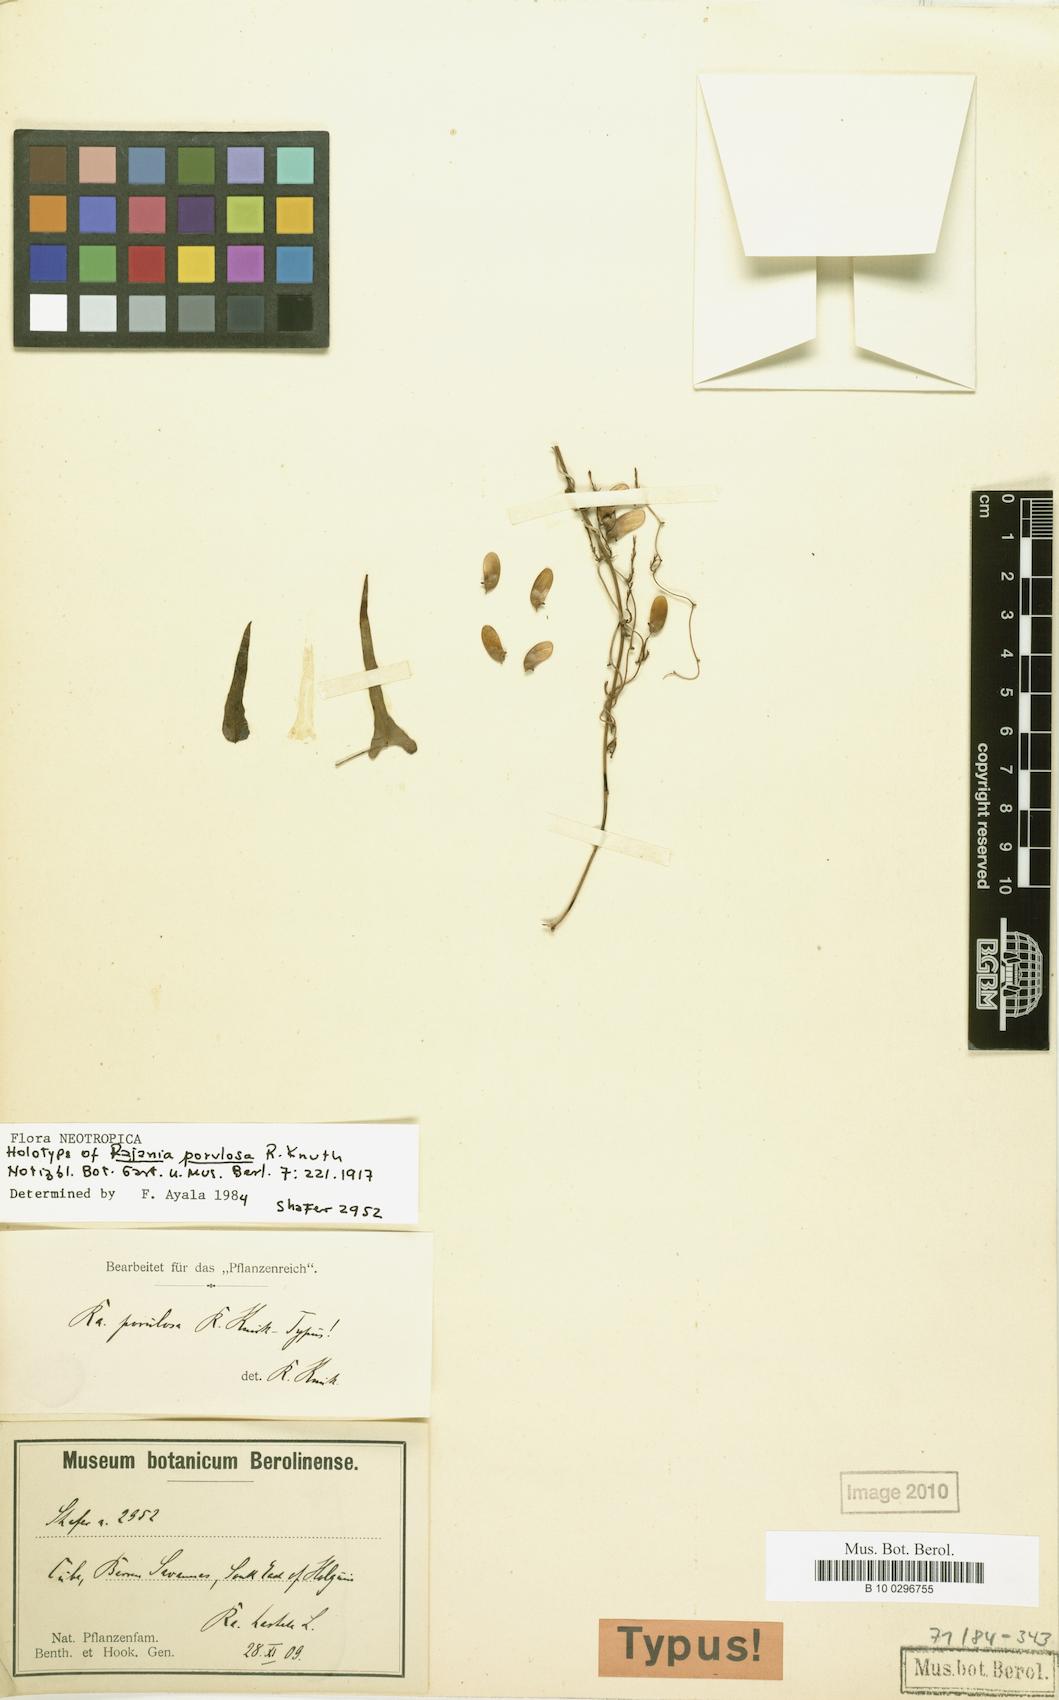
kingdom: Plantae
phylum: Tracheophyta
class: Liliopsida
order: Dioscoreales
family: Dioscoreaceae
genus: Dioscorea
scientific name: Dioscorea porulosa
